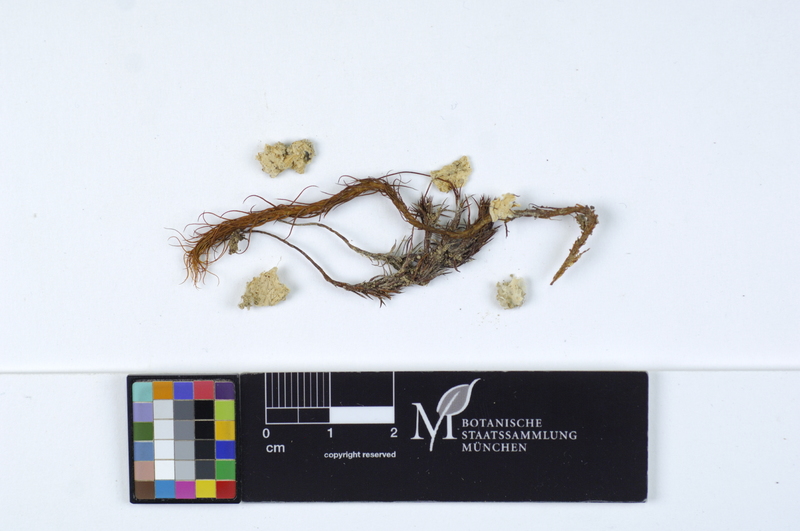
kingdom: Fungi
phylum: Basidiomycota
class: Agaricomycetes
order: Hymenochaetales
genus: Muscinupta
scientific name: Muscinupta laevis
